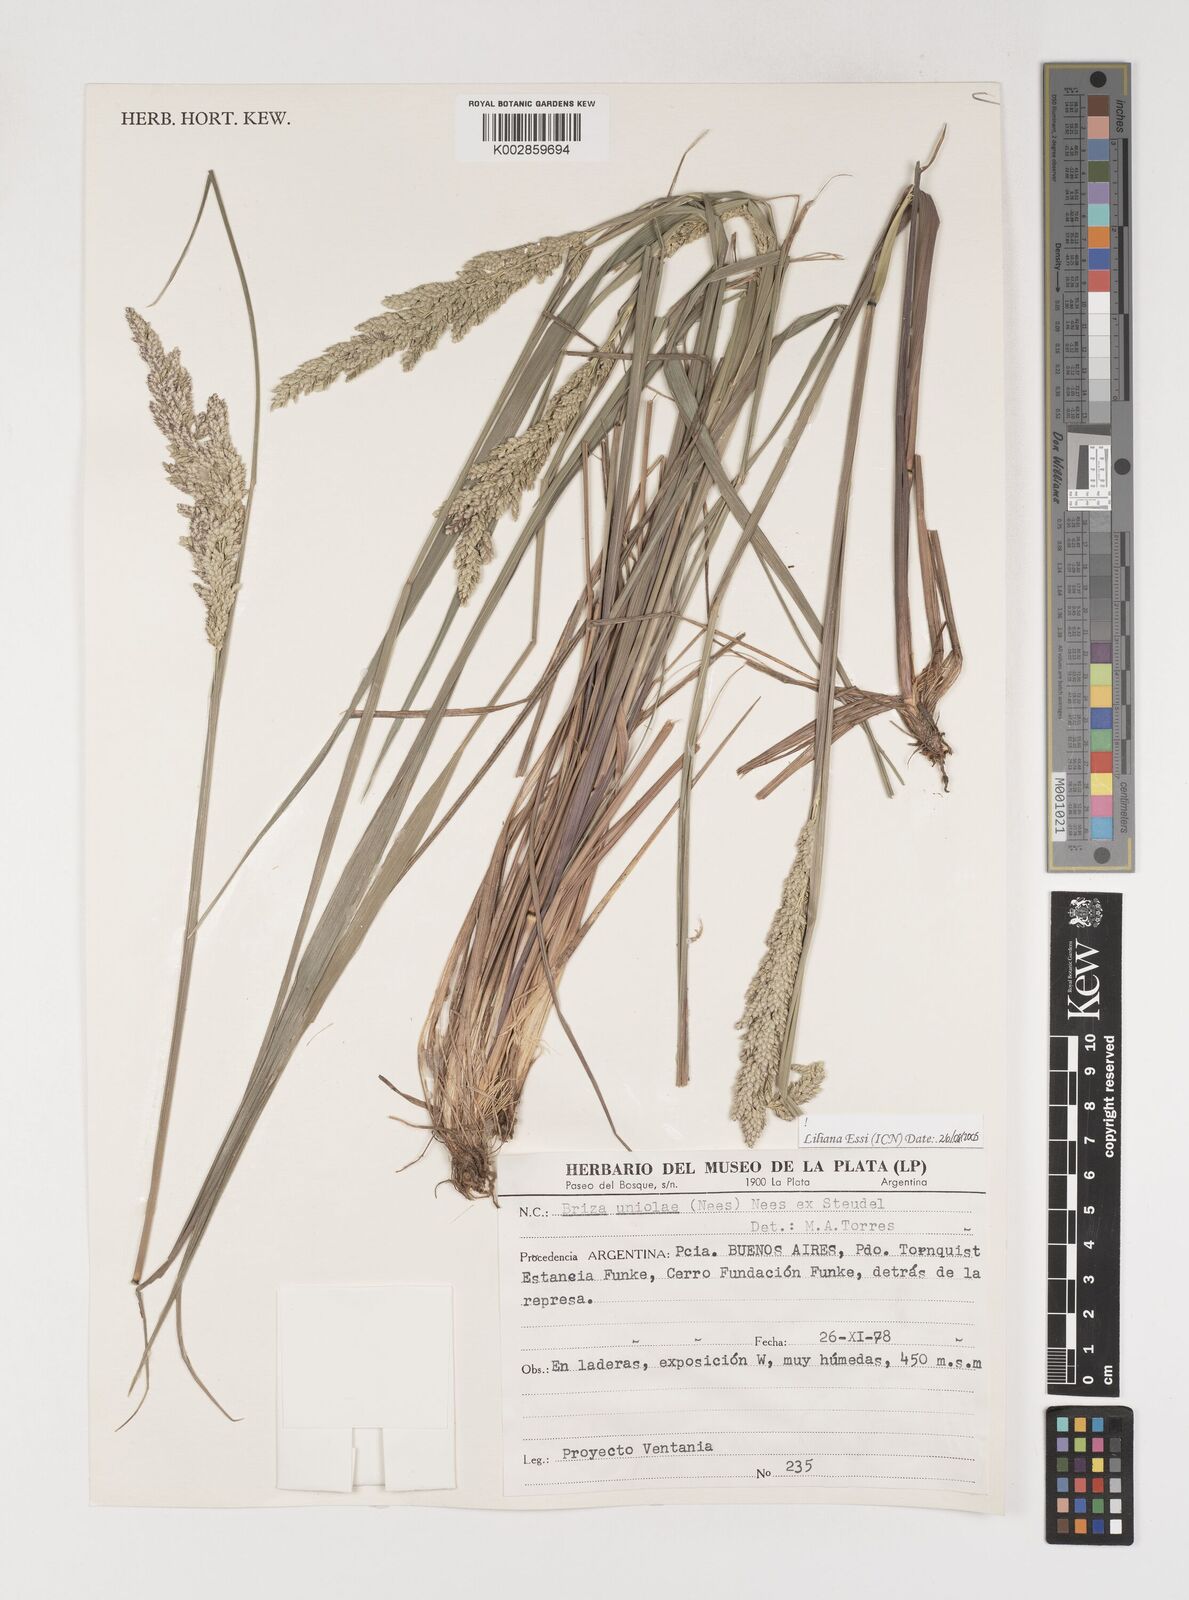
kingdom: Plantae
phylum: Tracheophyta
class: Liliopsida
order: Poales
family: Poaceae
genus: Poidium
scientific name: Poidium uniolae
